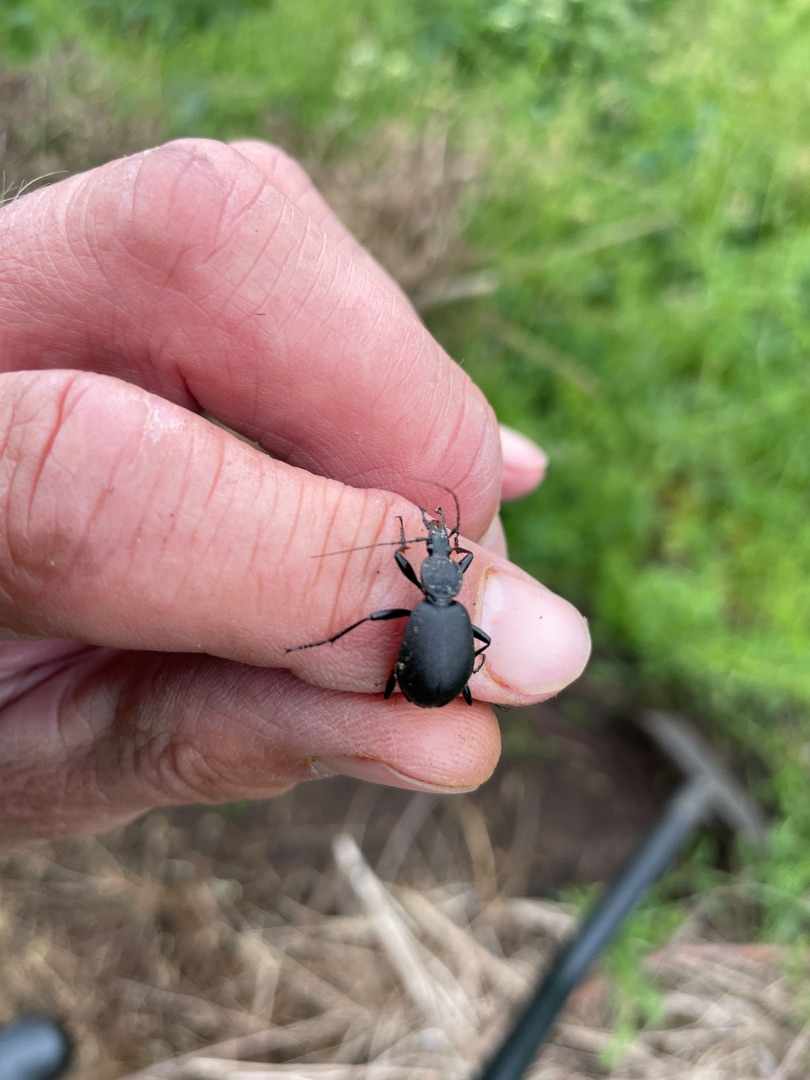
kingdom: Animalia
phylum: Arthropoda
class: Insecta
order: Coleoptera
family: Carabidae
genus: Cychrus
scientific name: Cychrus caraboides
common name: Sneglerøver
